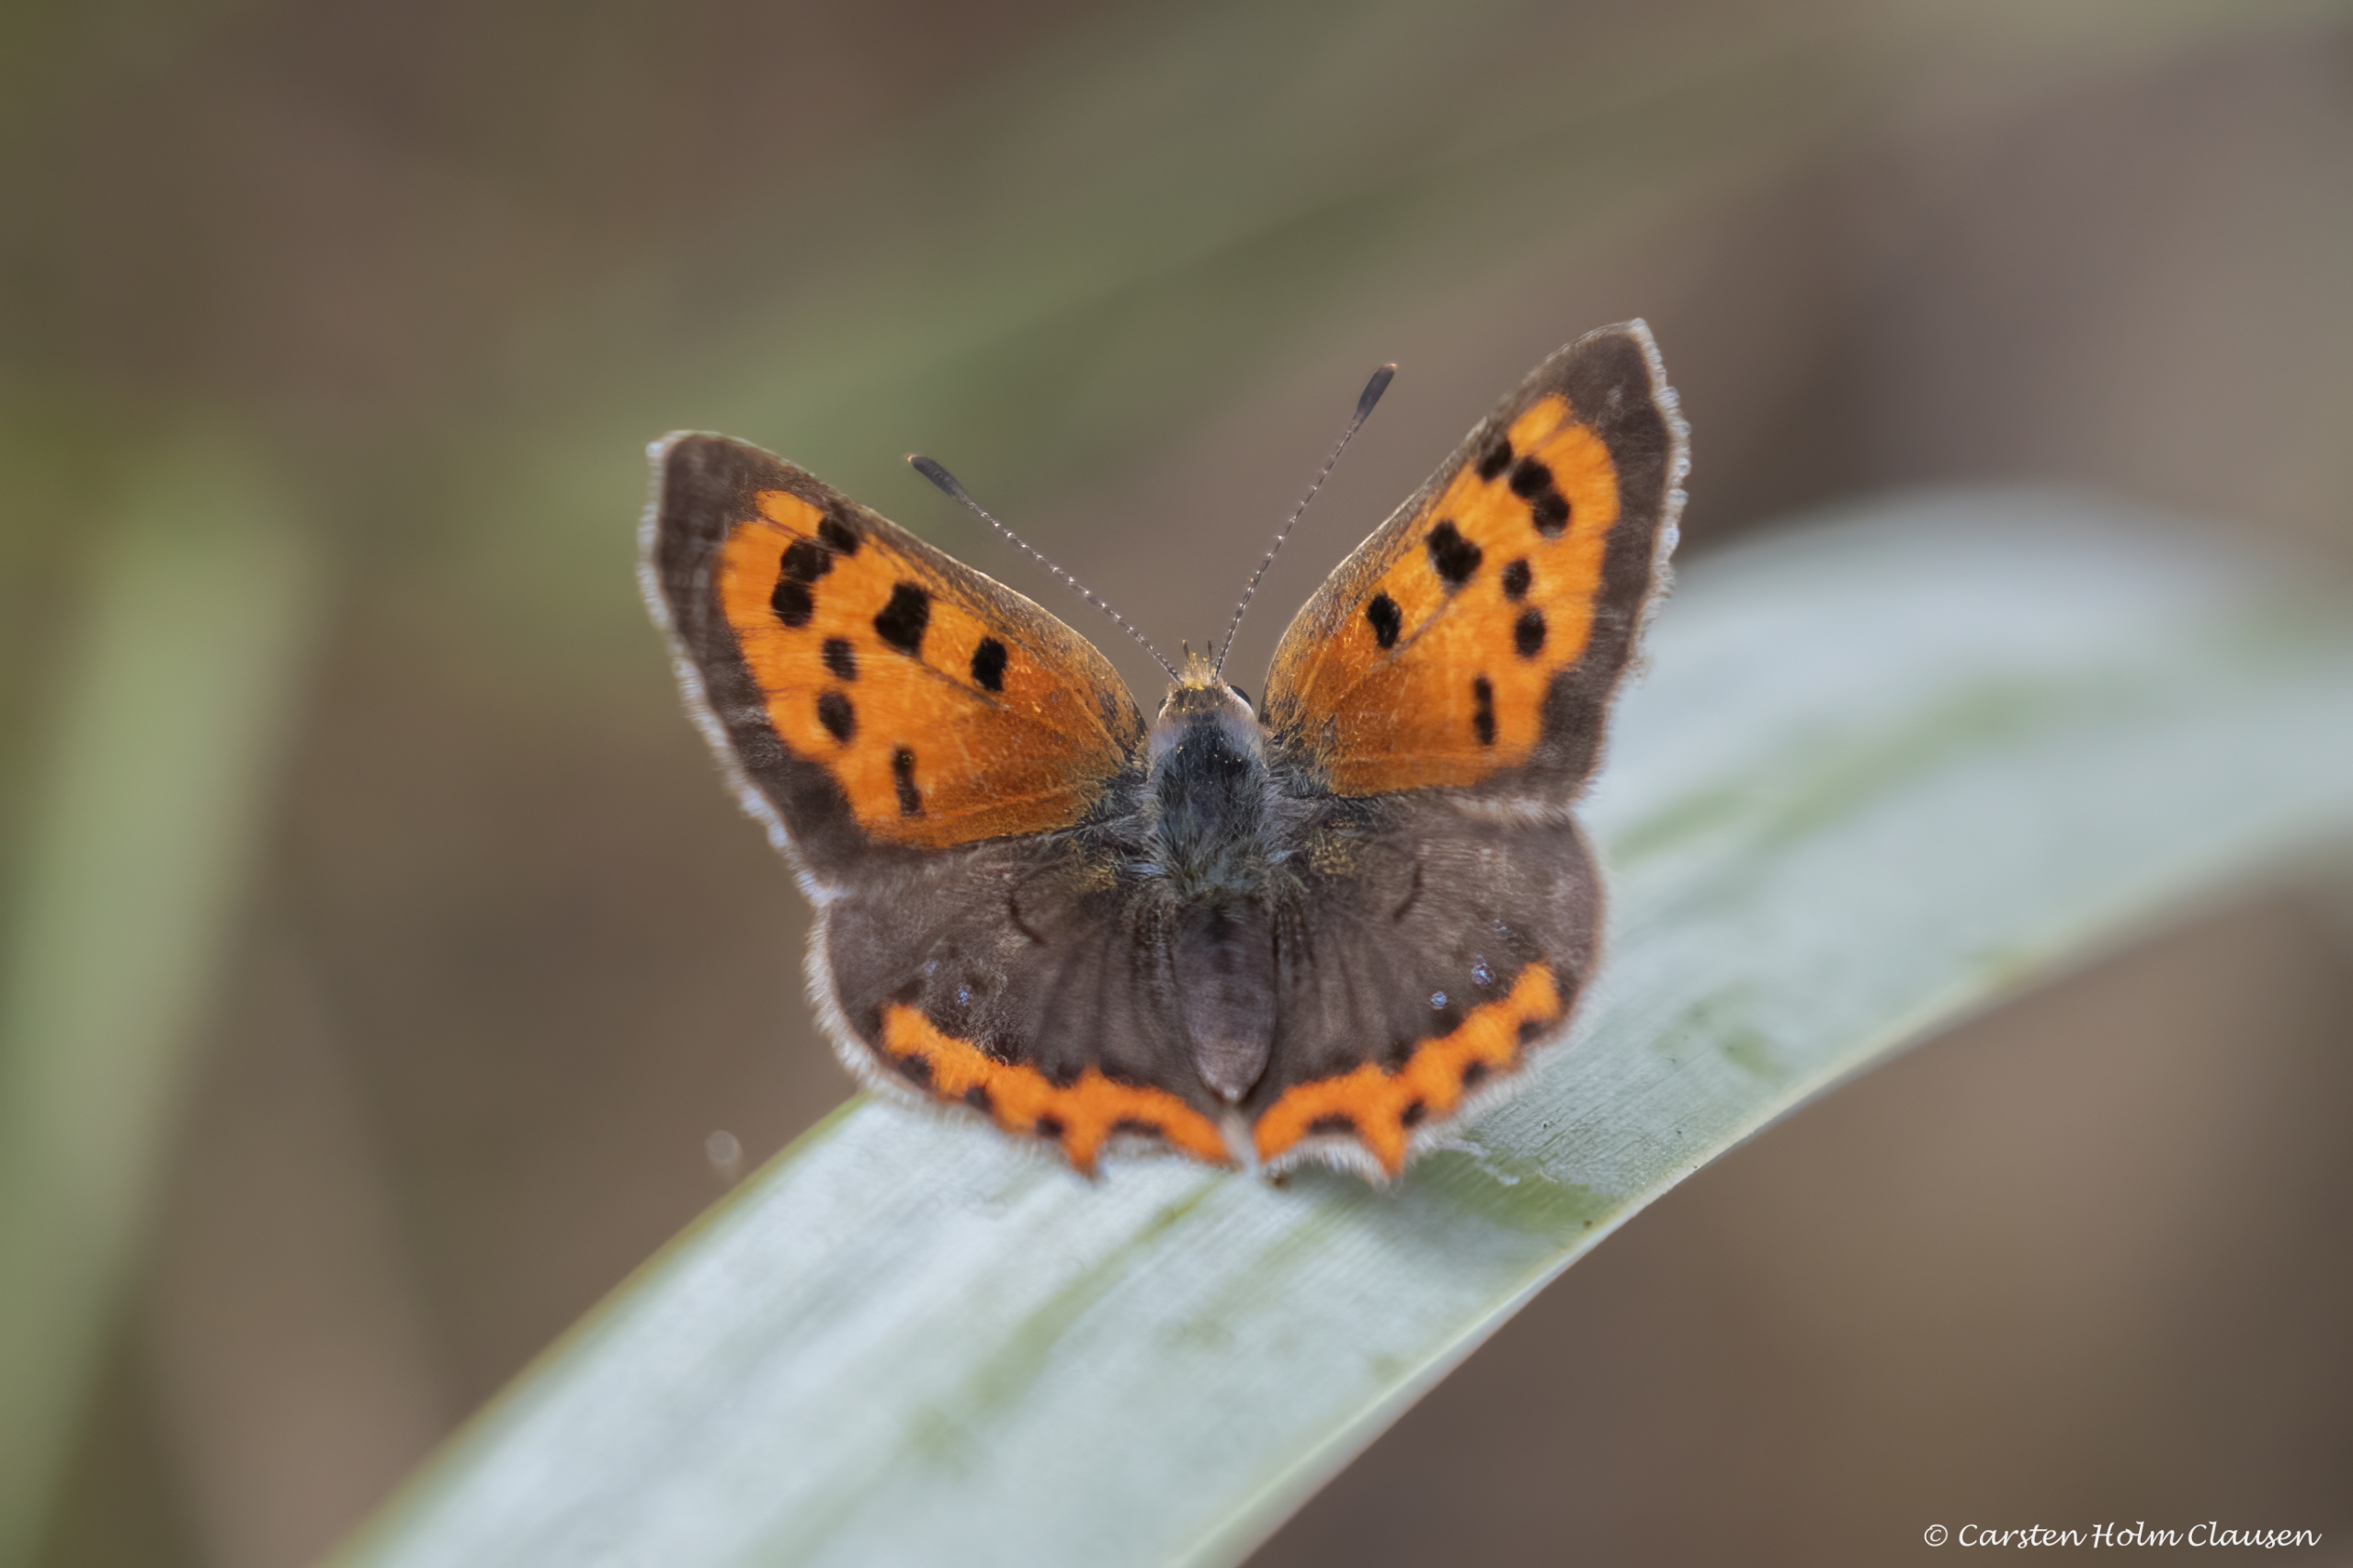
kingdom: Animalia
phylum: Arthropoda
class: Insecta
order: Lepidoptera
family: Lycaenidae
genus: Lycaena
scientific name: Lycaena phlaeas
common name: Lille ildfugl
